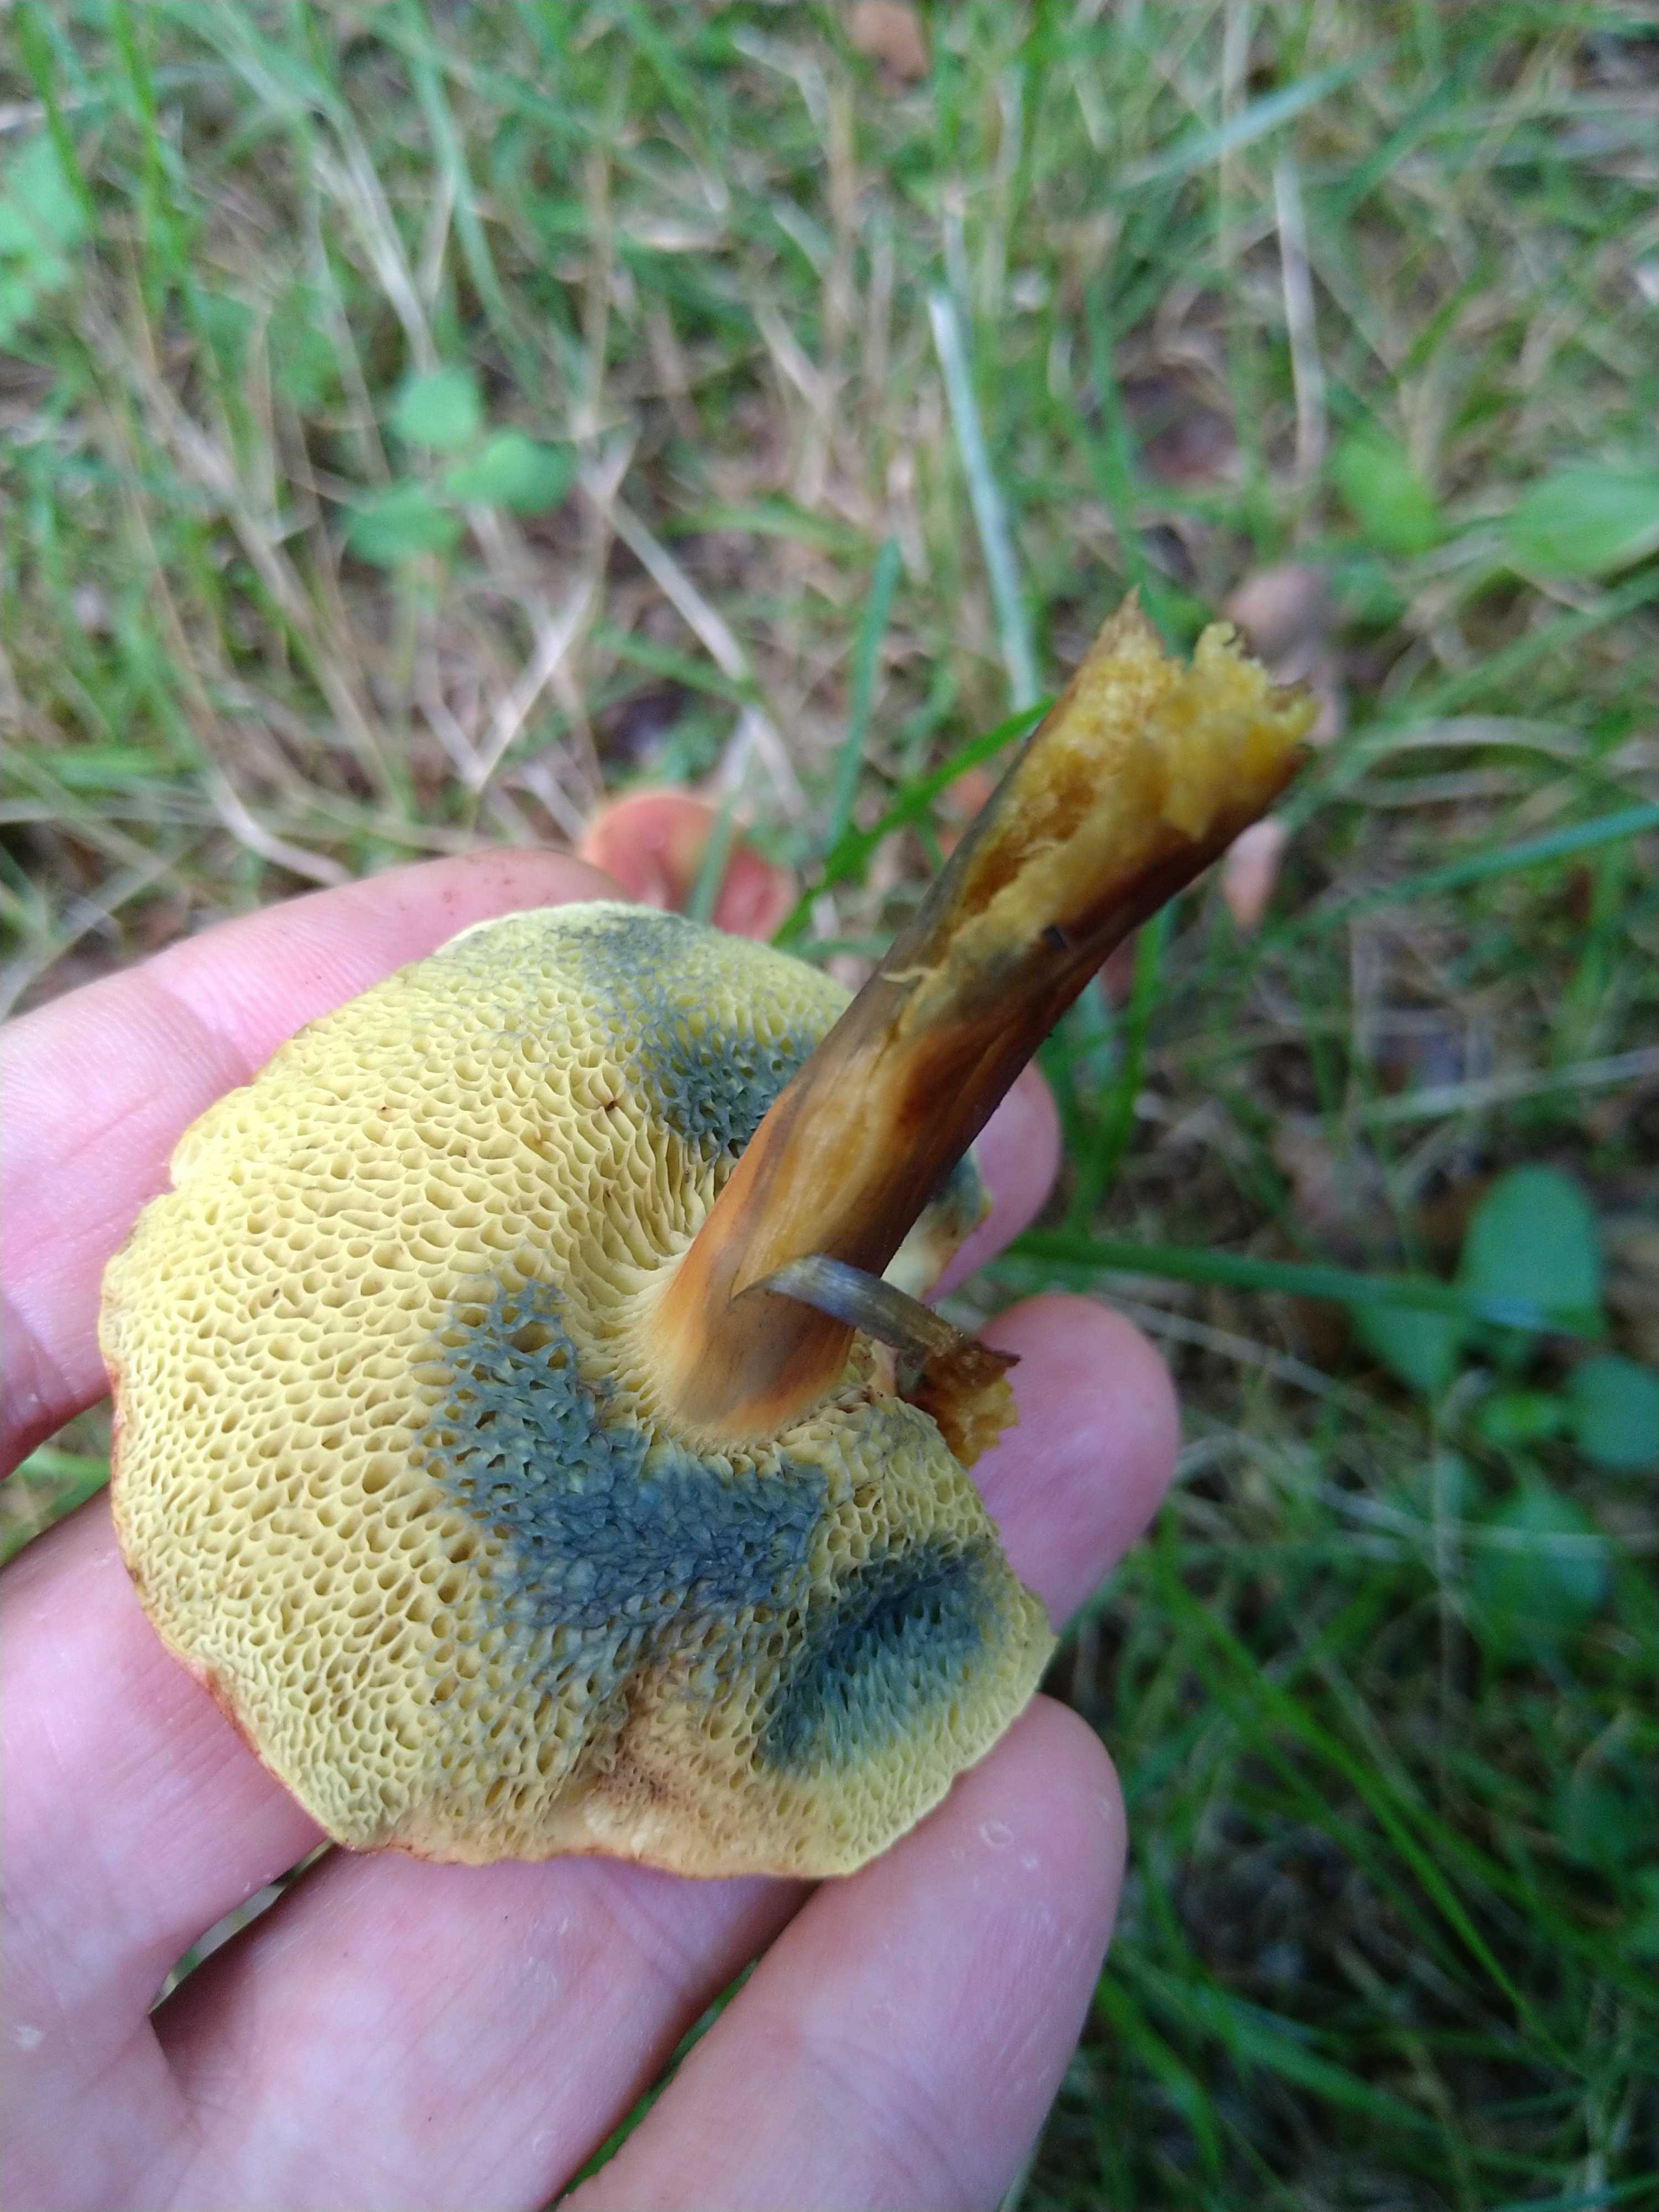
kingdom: Fungi
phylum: Basidiomycota
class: Agaricomycetes
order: Boletales
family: Boletaceae
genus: Hortiboletus
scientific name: Hortiboletus rubellus
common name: blodrød rørhat
